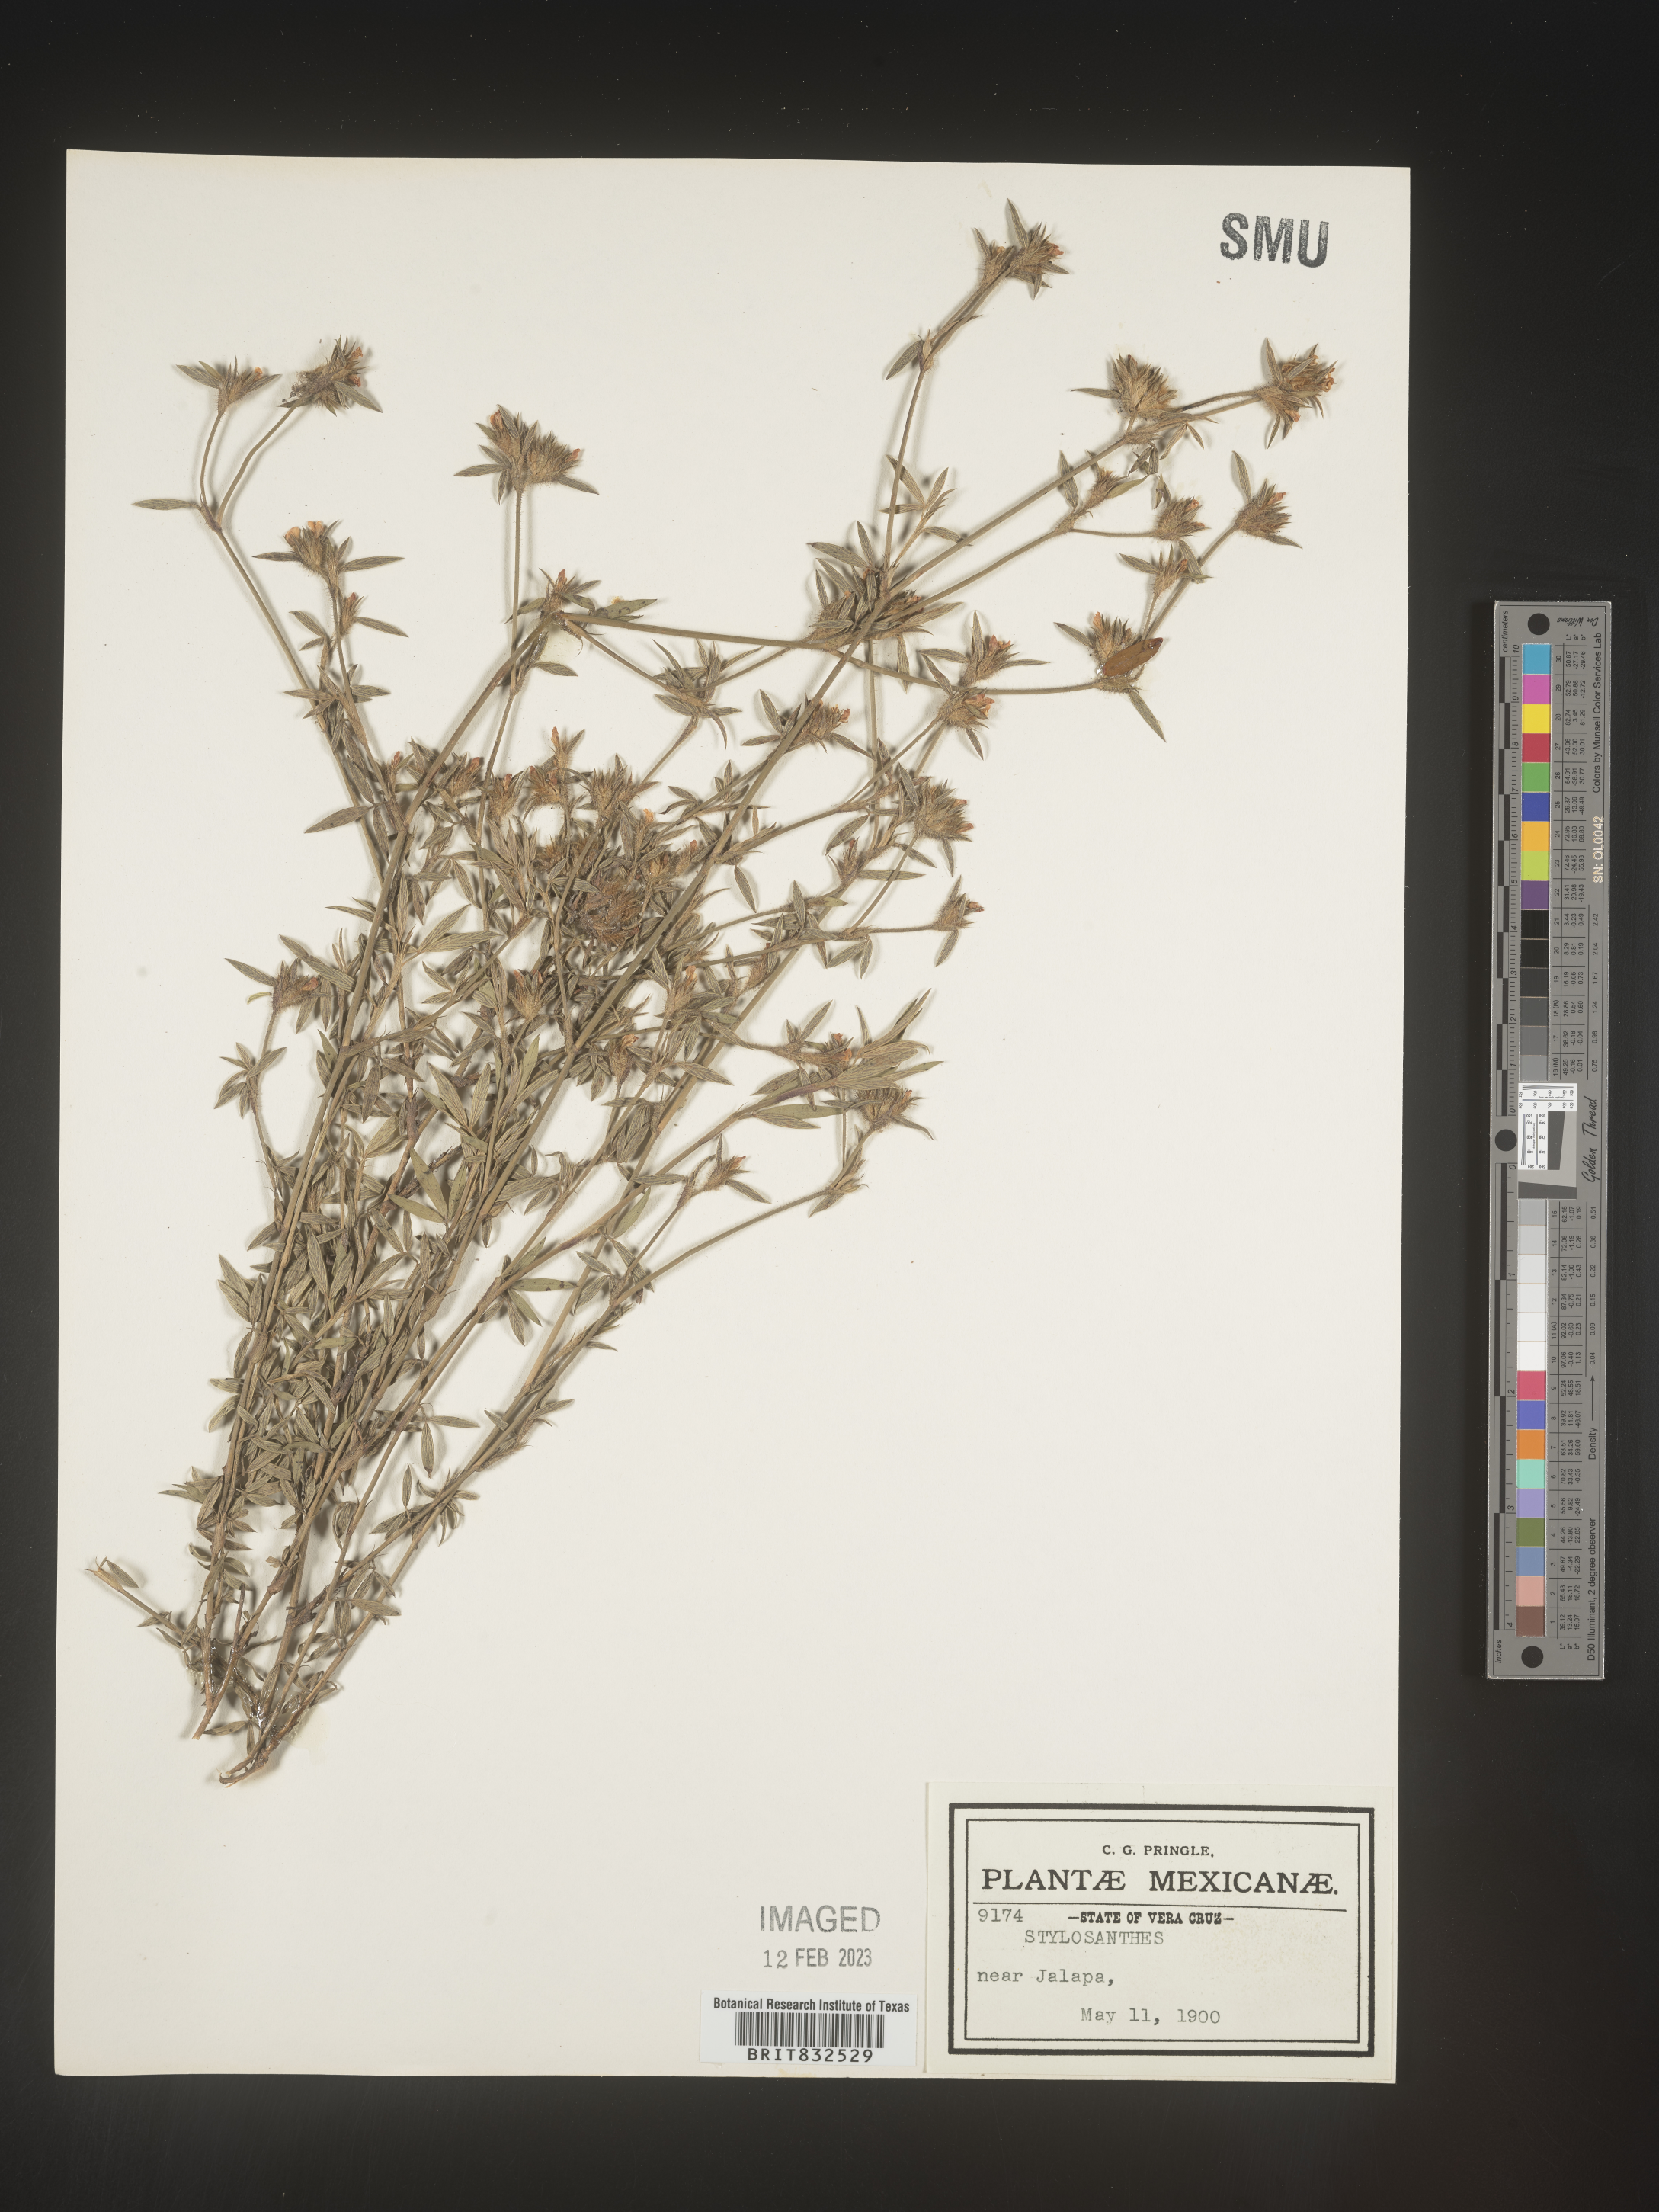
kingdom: Plantae
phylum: Tracheophyta
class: Magnoliopsida
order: Fabales
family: Fabaceae
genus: Stylosanthes
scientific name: Stylosanthes
